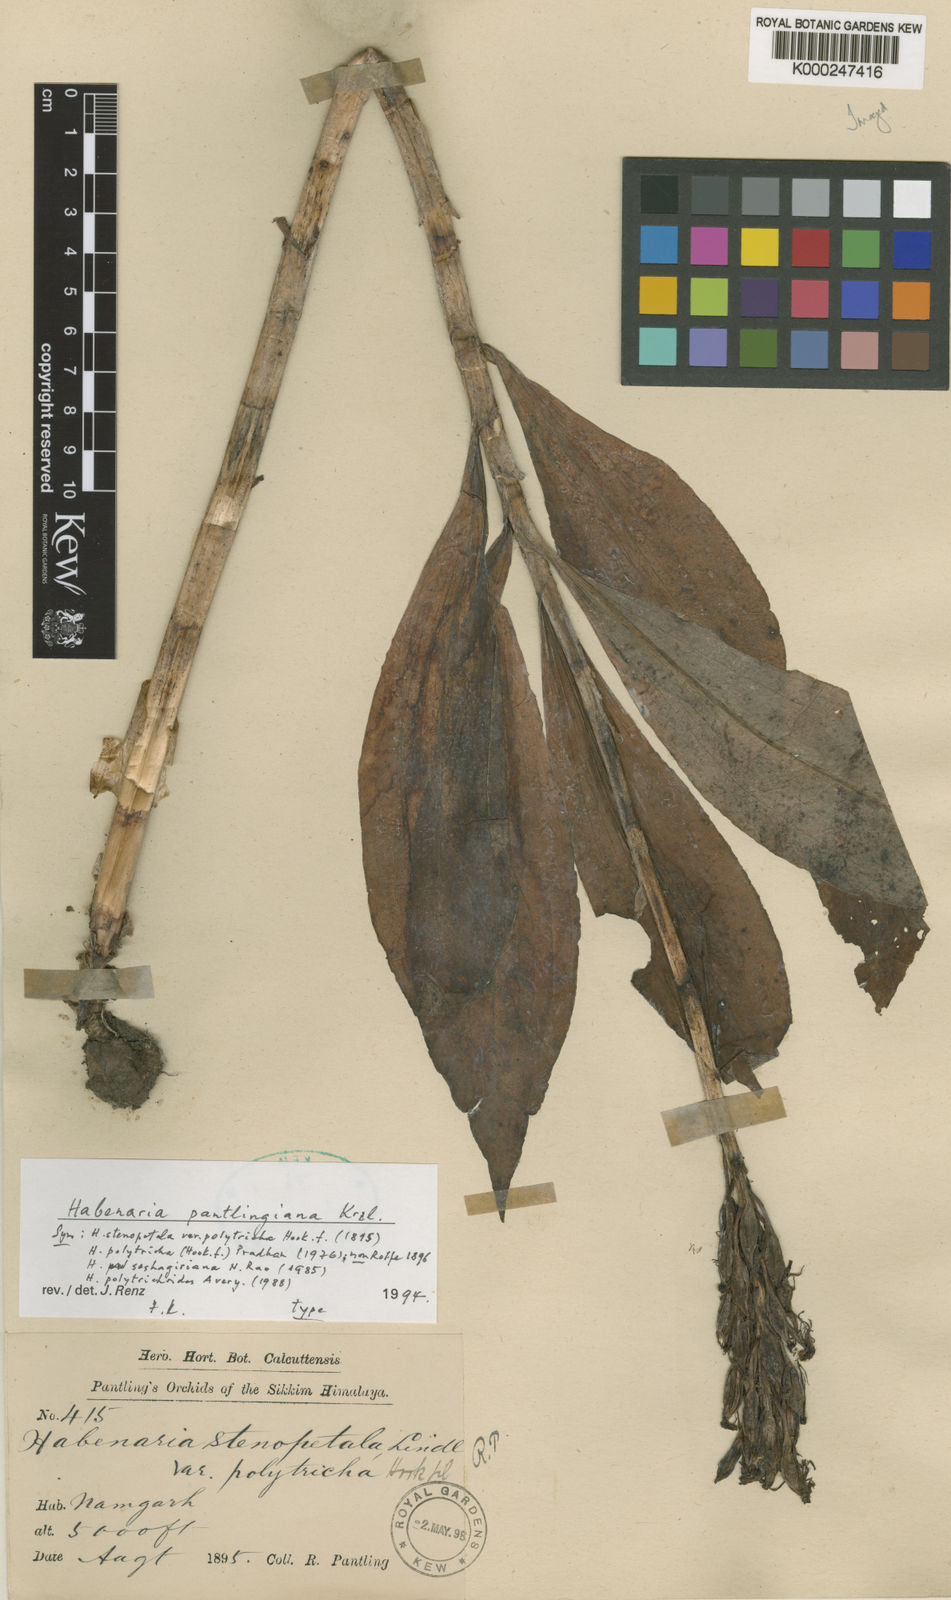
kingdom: Plantae
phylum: Tracheophyta
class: Liliopsida
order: Asparagales
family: Orchidaceae
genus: Habenaria
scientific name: Habenaria pantlingiana
